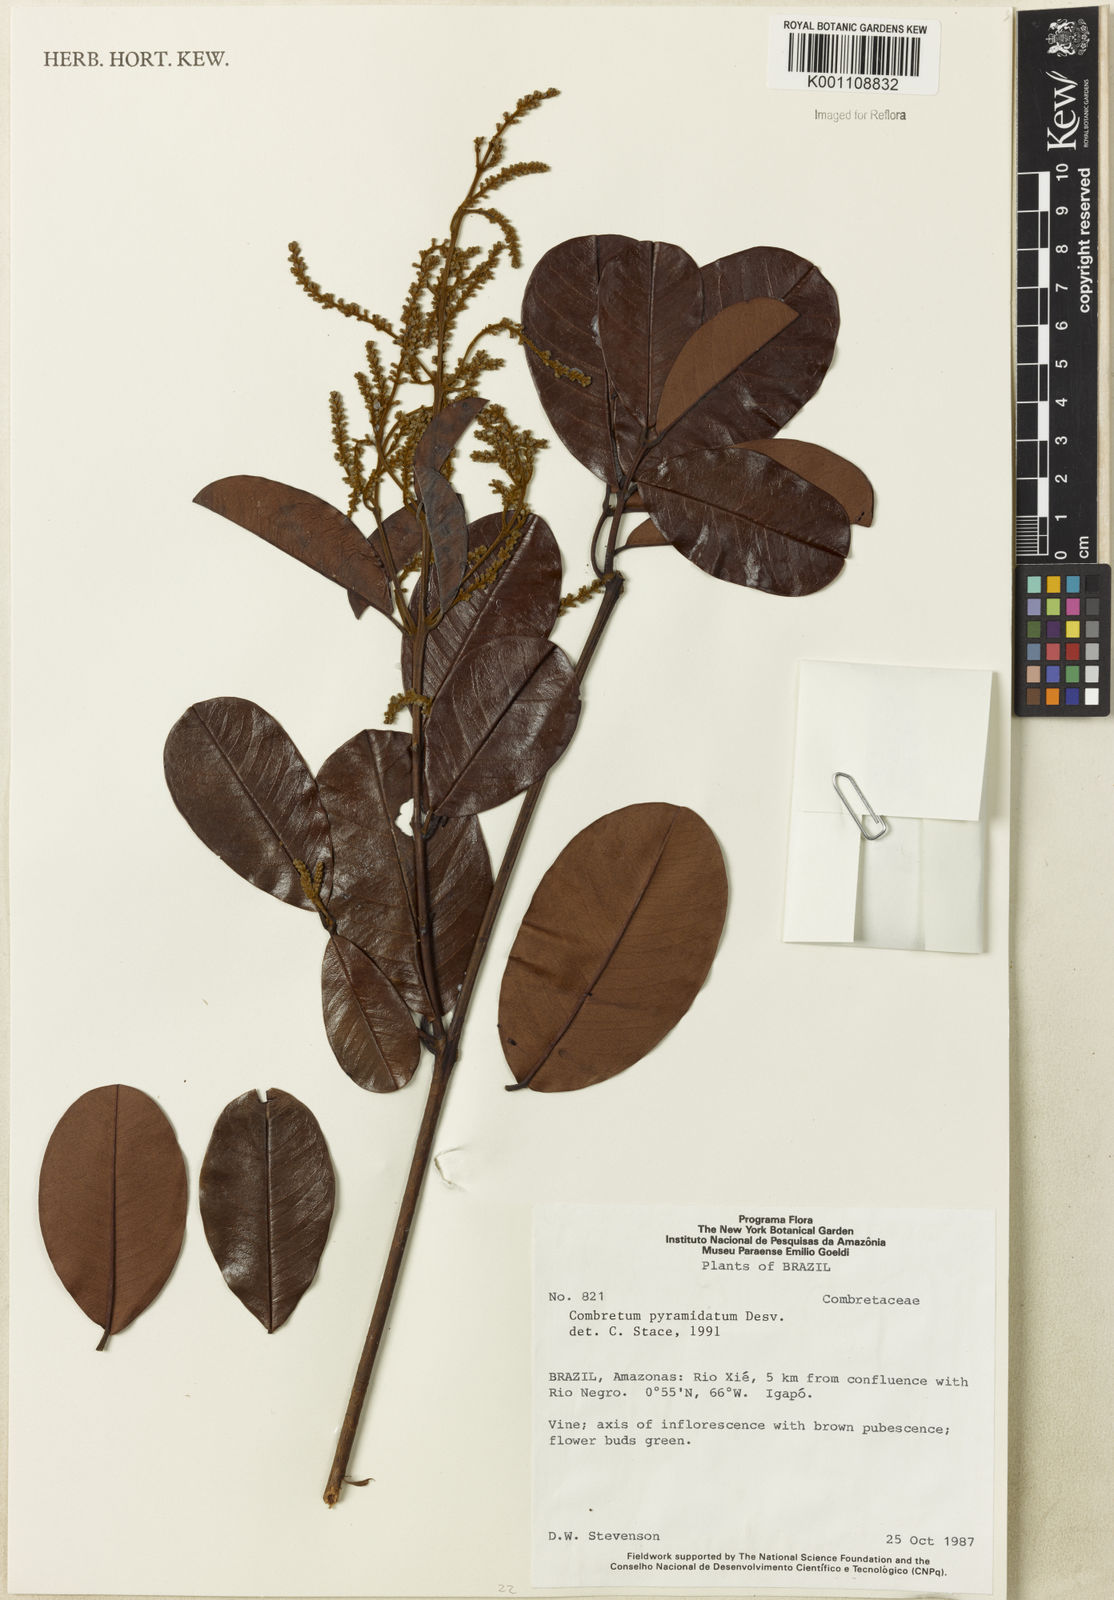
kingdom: Plantae
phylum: Tracheophyta
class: Magnoliopsida
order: Myrtales
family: Combretaceae
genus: Combretum
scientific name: Combretum pyramidatum
